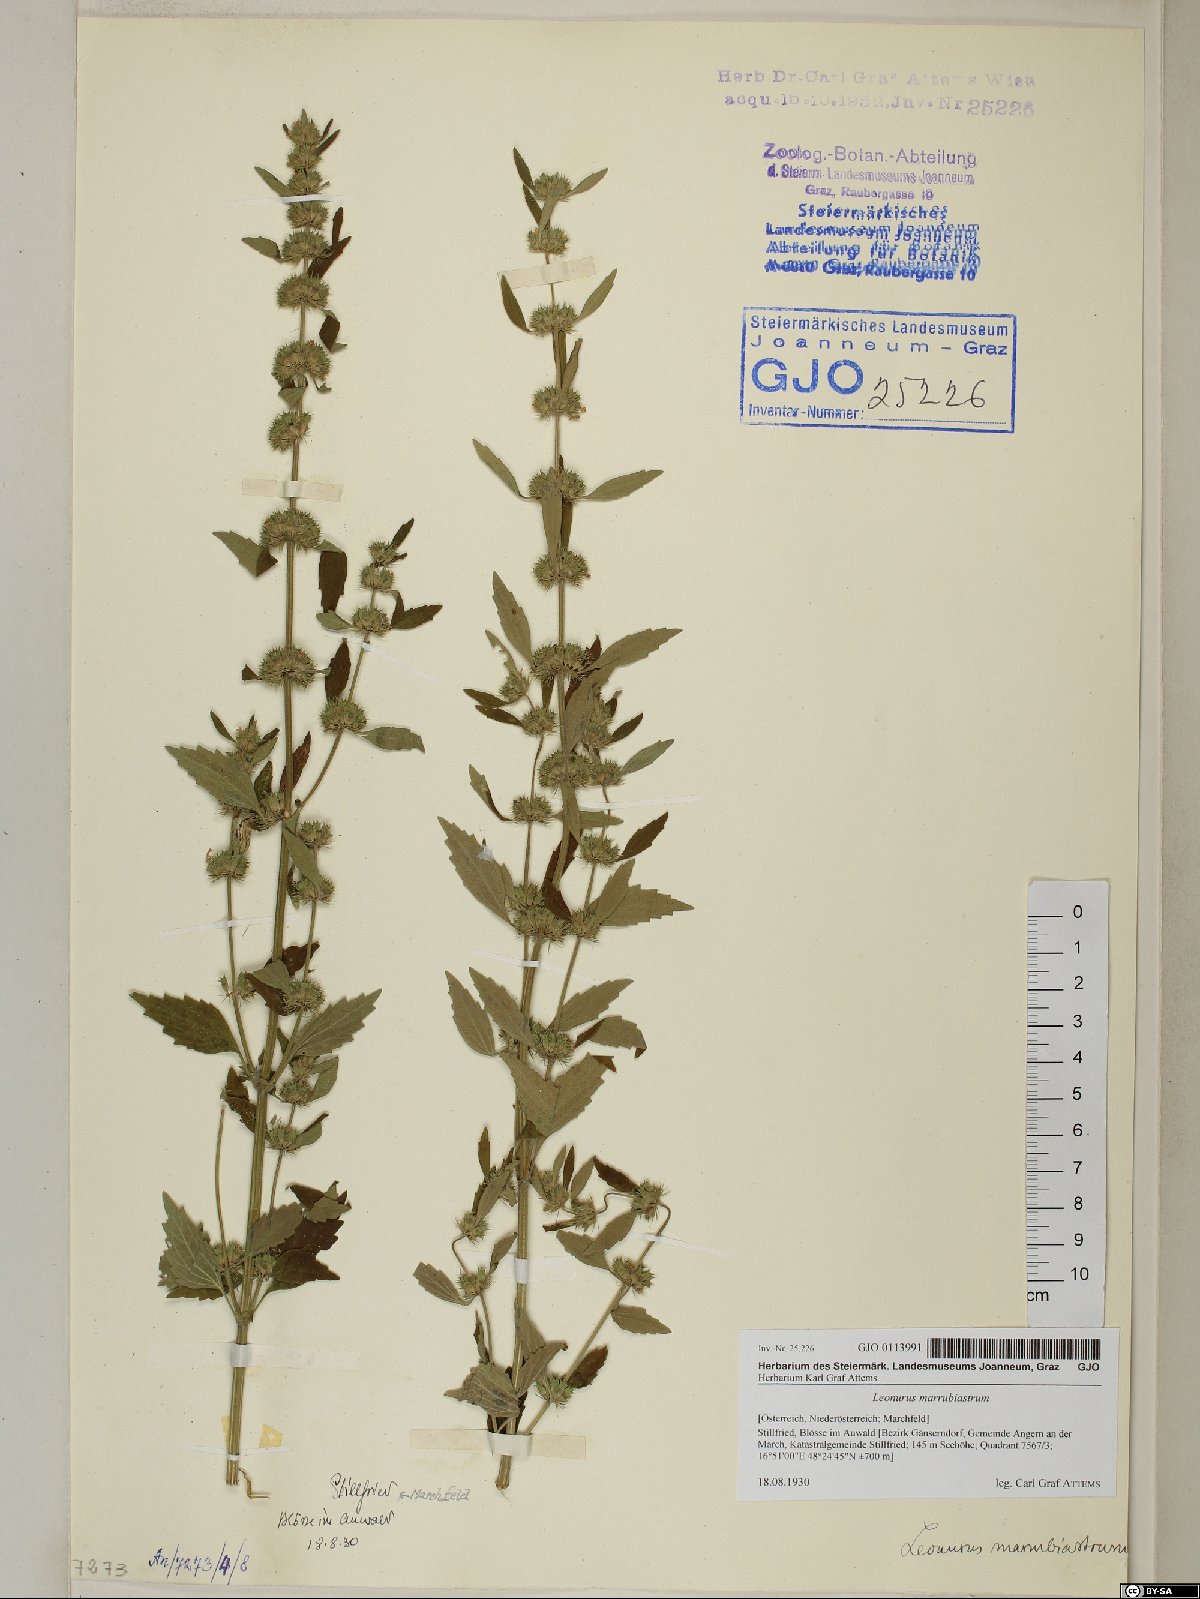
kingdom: Plantae
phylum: Tracheophyta
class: Magnoliopsida
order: Lamiales
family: Lamiaceae
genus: Chaiturus
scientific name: Chaiturus marrubiastrum
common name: Lion's tail
